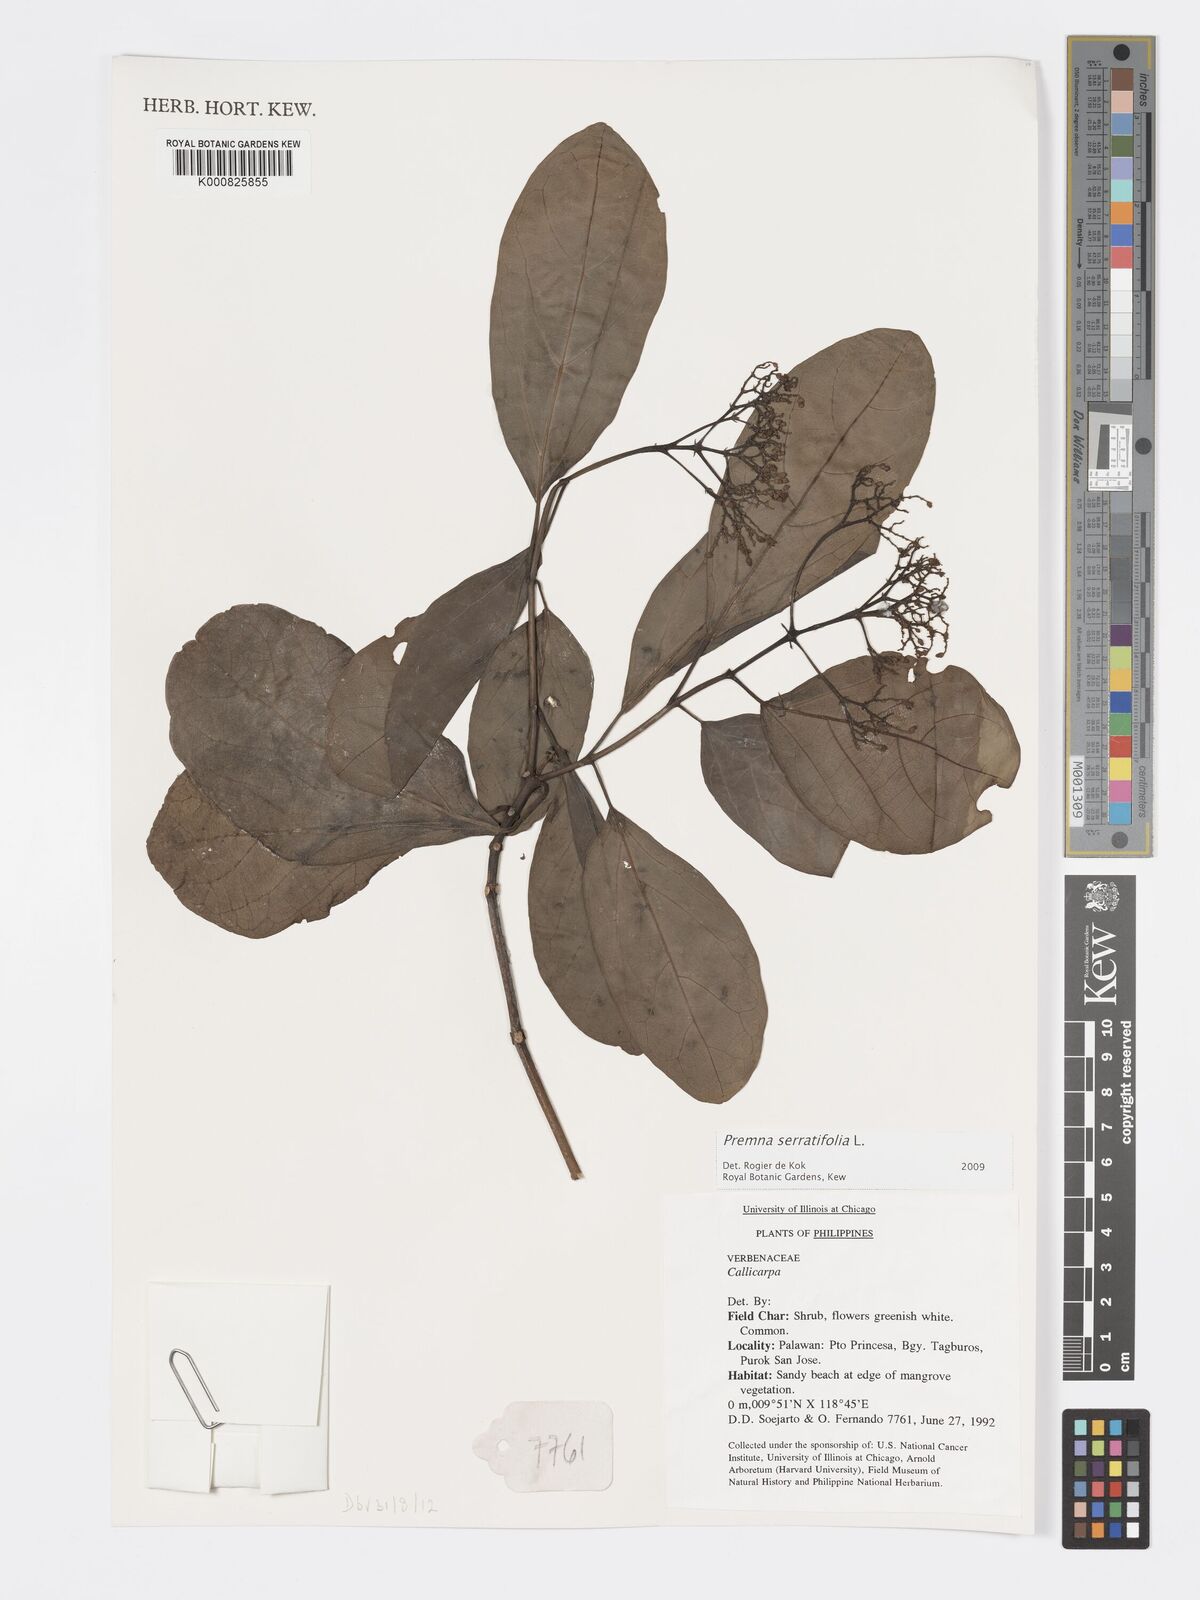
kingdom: Plantae
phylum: Tracheophyta
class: Magnoliopsida
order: Lamiales
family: Lamiaceae
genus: Premna
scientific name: Premna serratifolia
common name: Bastard guelder
